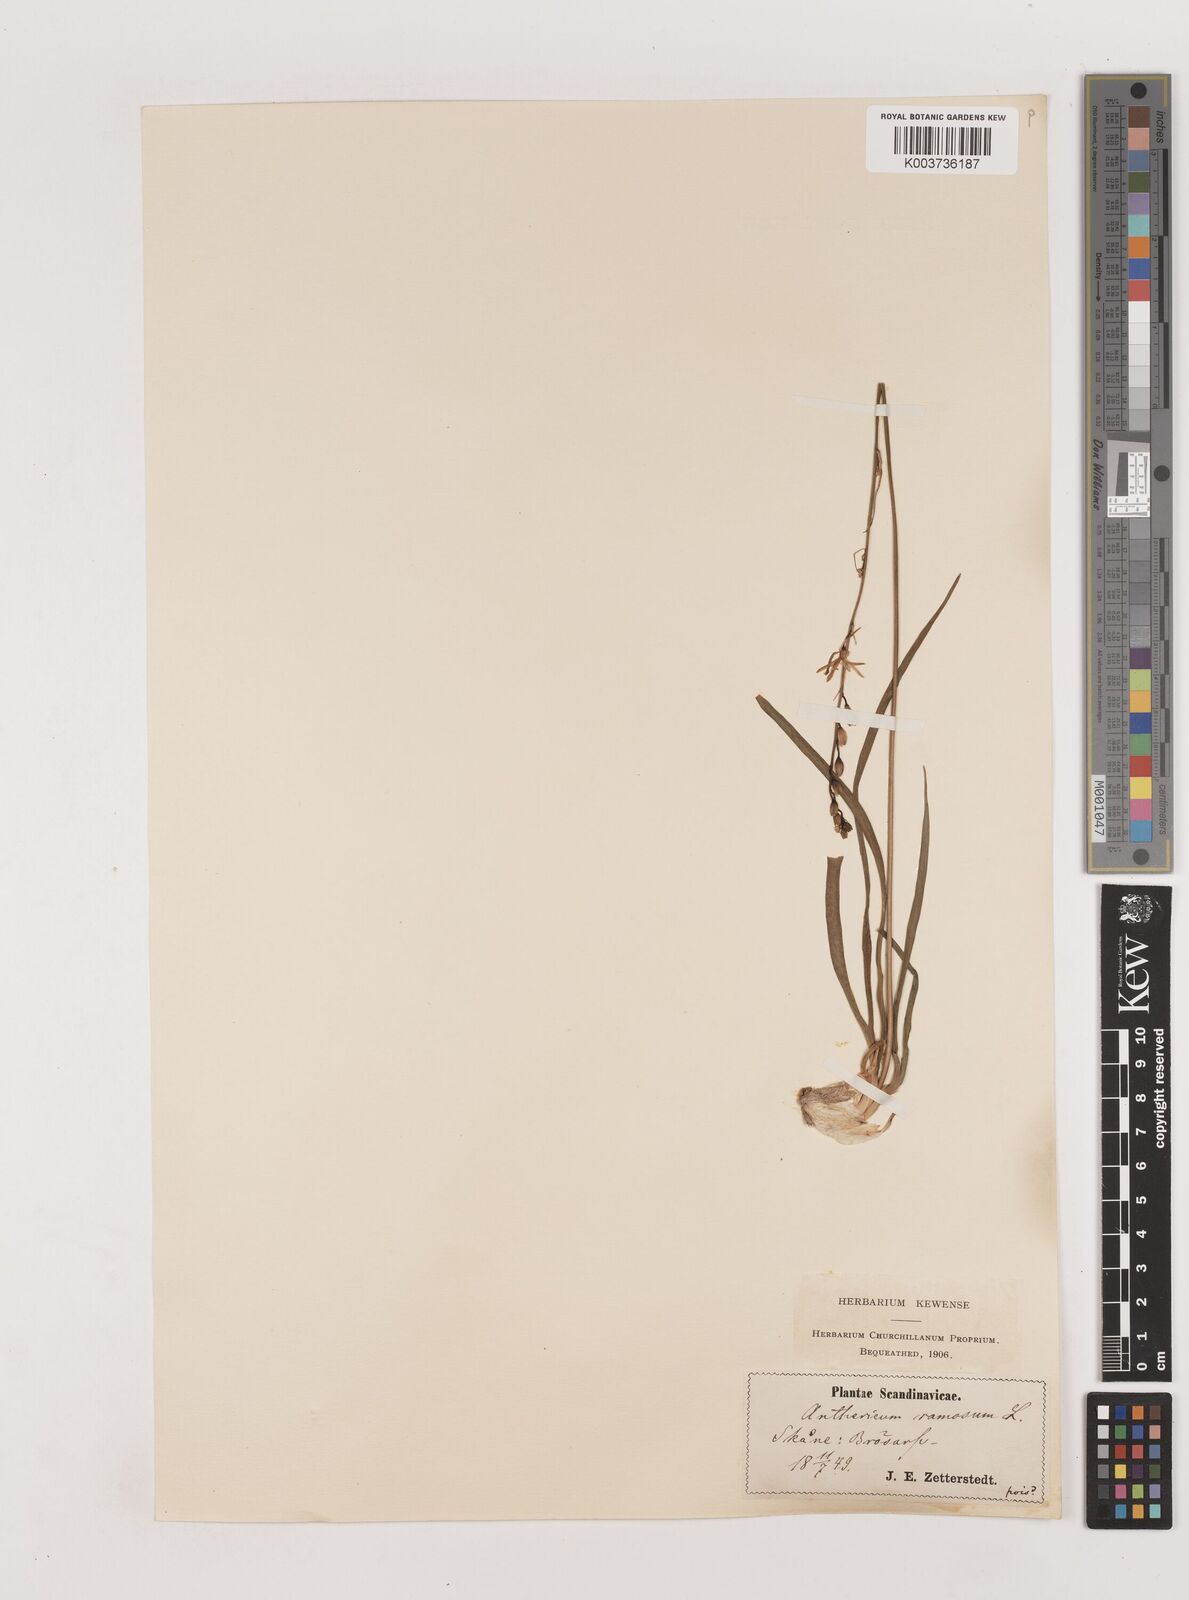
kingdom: Plantae
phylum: Tracheophyta
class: Liliopsida
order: Asparagales
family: Asparagaceae
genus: Anthericum
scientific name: Anthericum ramosum
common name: Branched st. bernard's-lily
